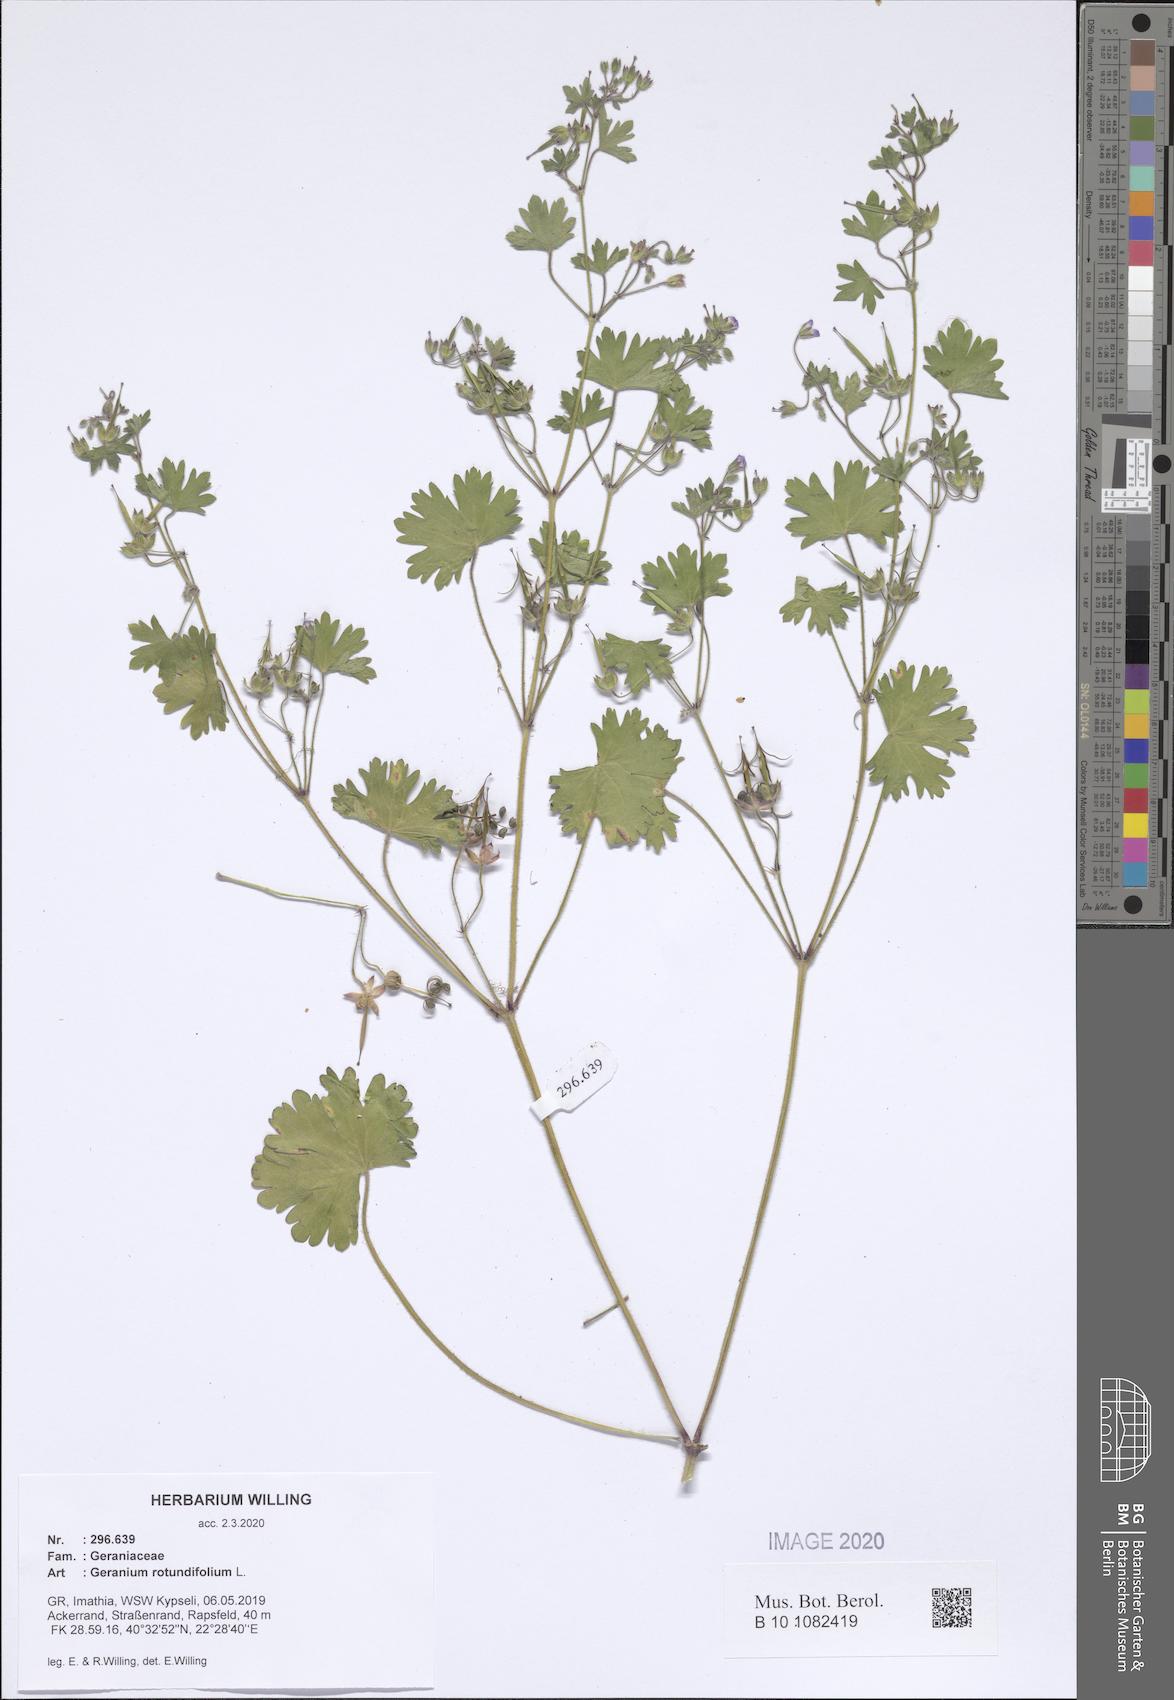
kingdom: Plantae
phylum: Tracheophyta
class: Magnoliopsida
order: Geraniales
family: Geraniaceae
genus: Geranium
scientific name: Geranium rotundifolium
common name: Round-leaved crane's-bill
